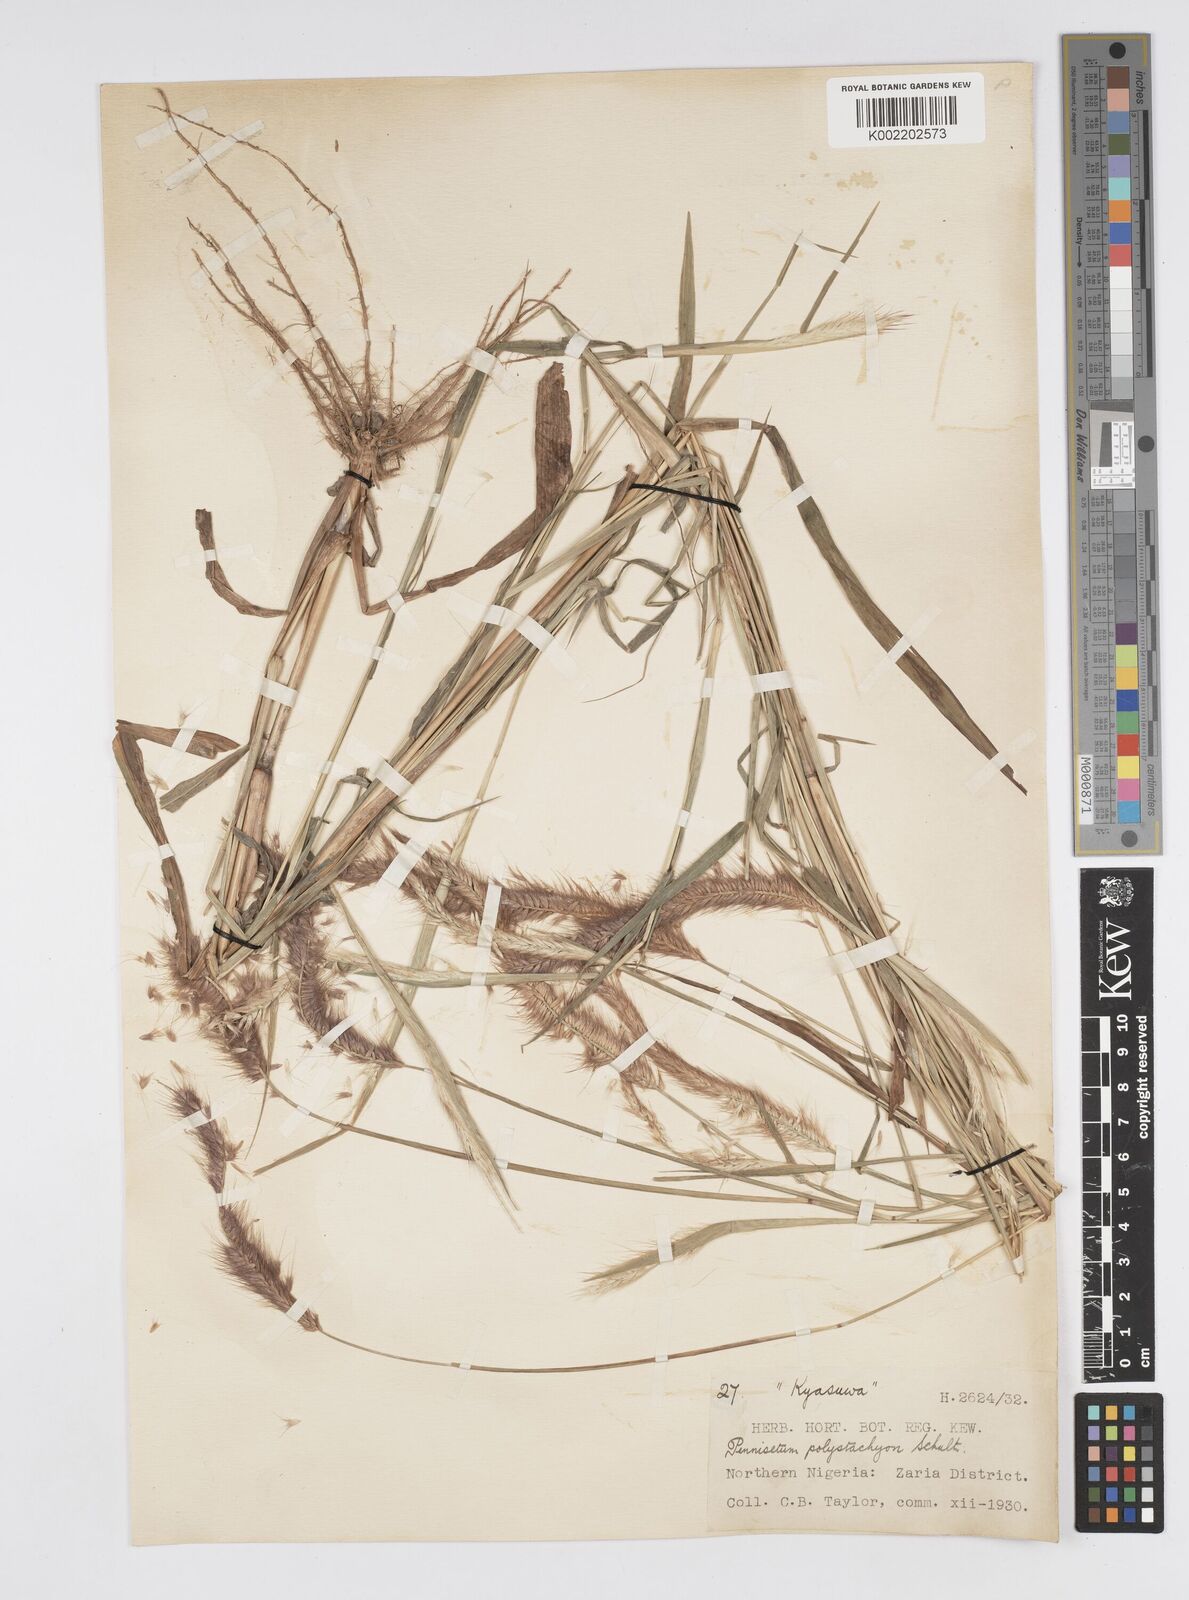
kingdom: Plantae
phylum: Tracheophyta
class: Liliopsida
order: Poales
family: Poaceae
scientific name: Poaceae
